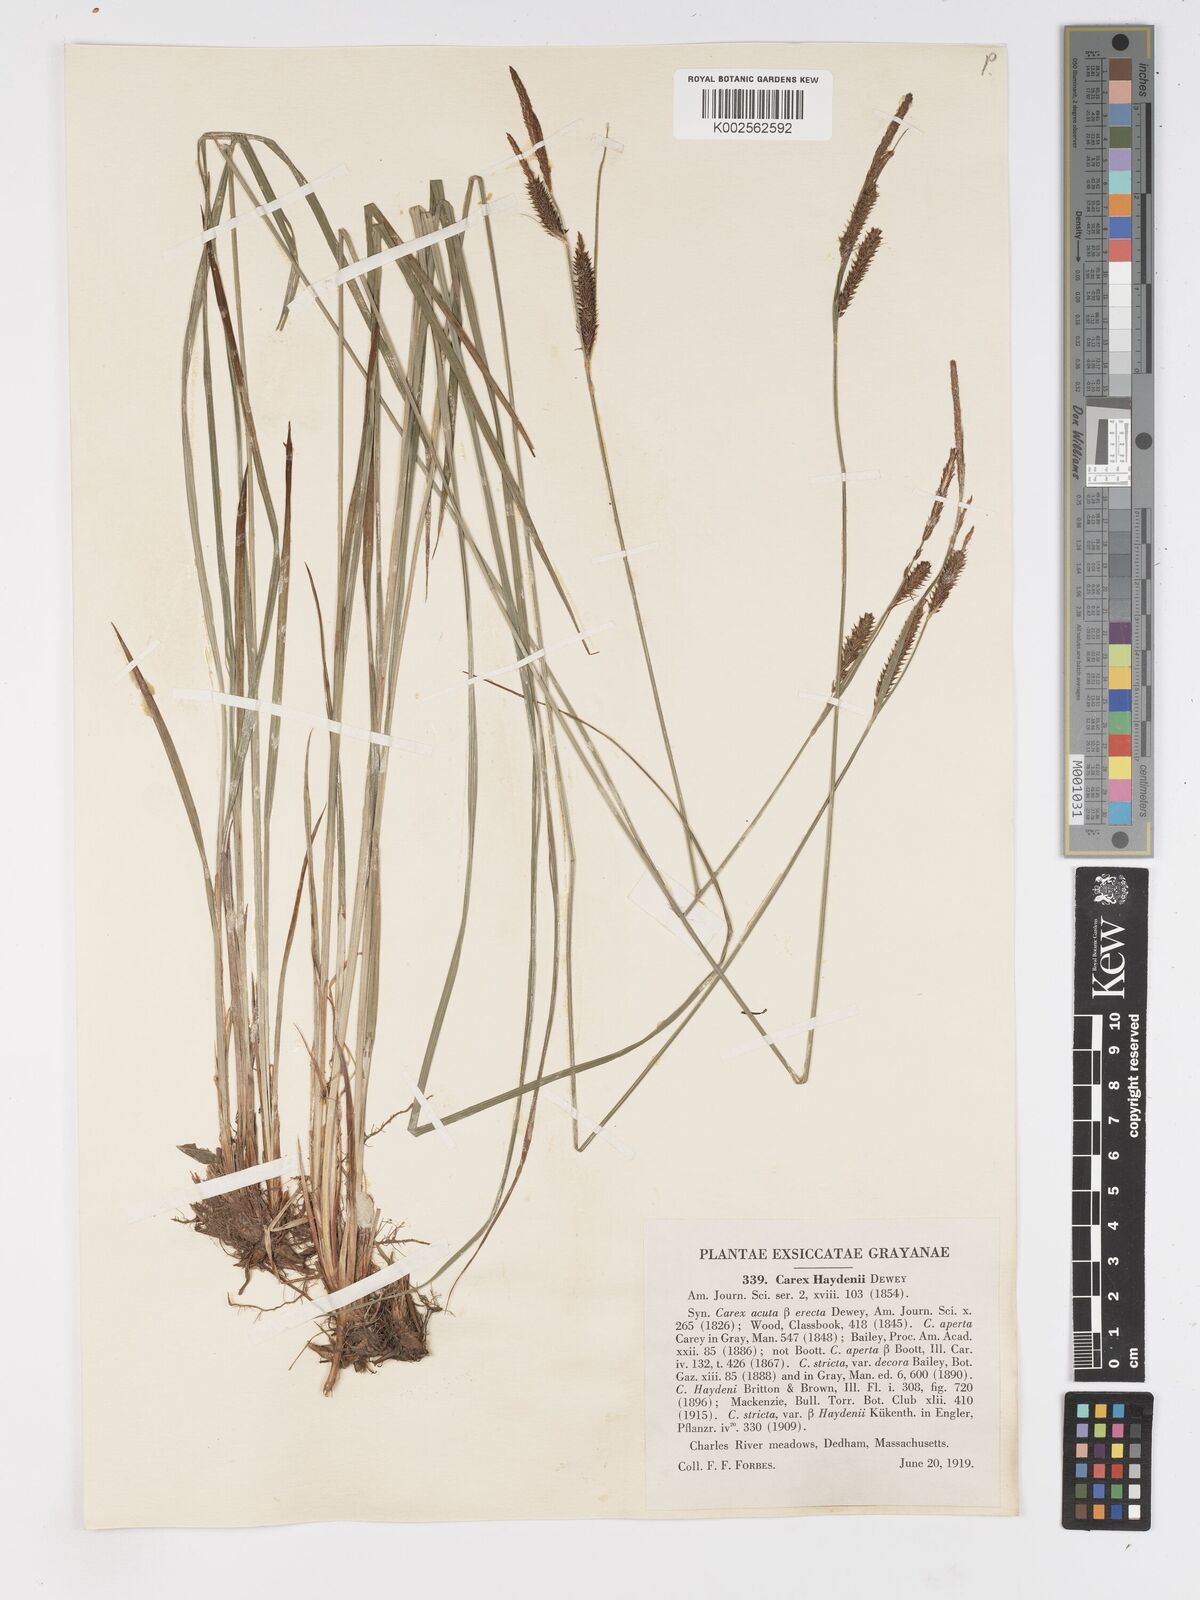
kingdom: Plantae
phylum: Tracheophyta
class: Liliopsida
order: Poales
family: Cyperaceae
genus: Carex
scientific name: Carex haydenii
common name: Hayden's sedge
